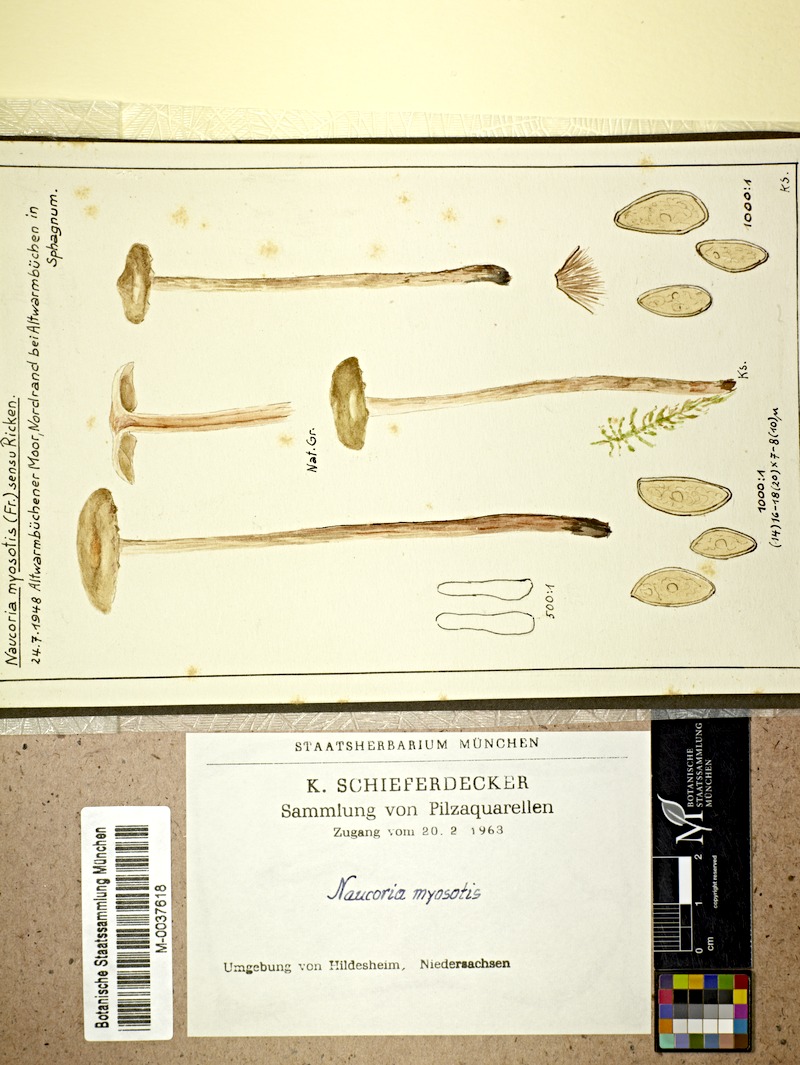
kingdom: Fungi
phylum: Basidiomycota
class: Agaricomycetes
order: Agaricales
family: Strophariaceae
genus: Hypholoma
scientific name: Hypholoma myosotis
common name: Olive brownie
